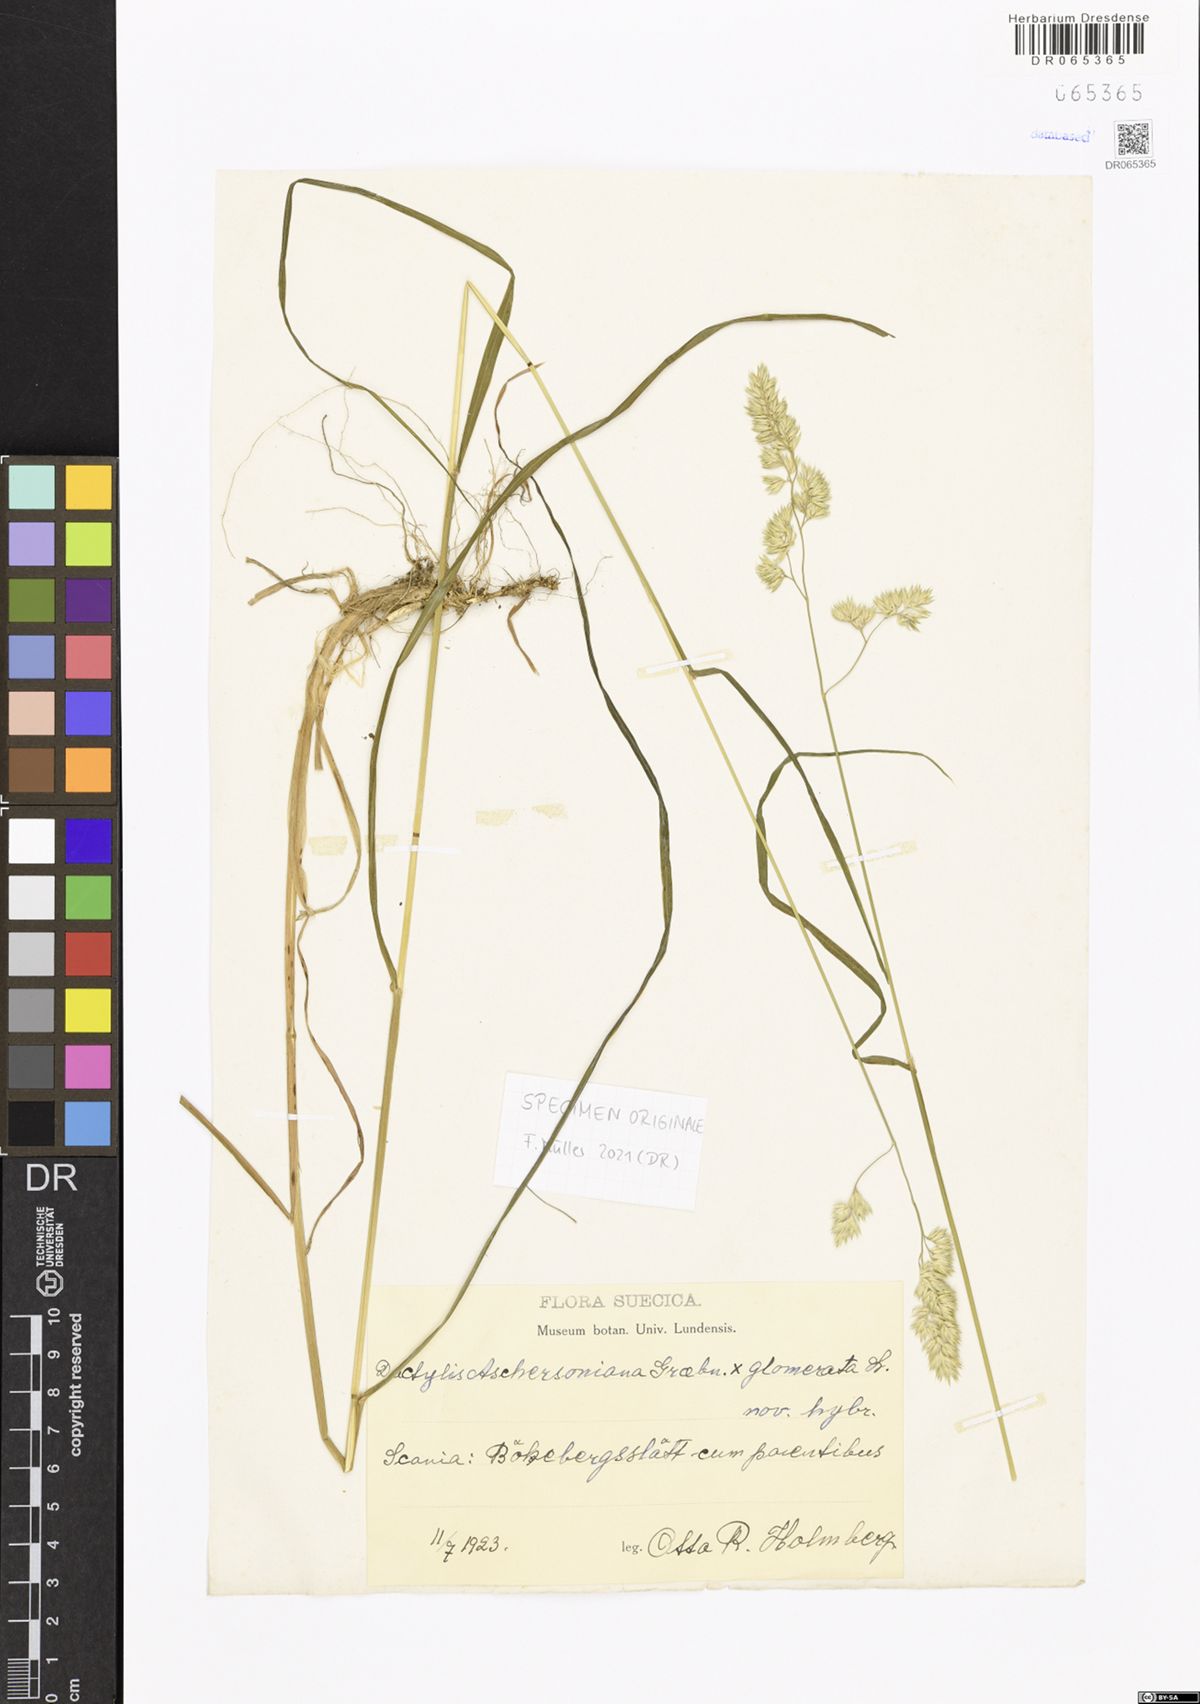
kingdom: Plantae
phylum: Tracheophyta
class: Liliopsida
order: Poales
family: Poaceae
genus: Dactylis
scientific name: Dactylis glomerata
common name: Orchardgrass
